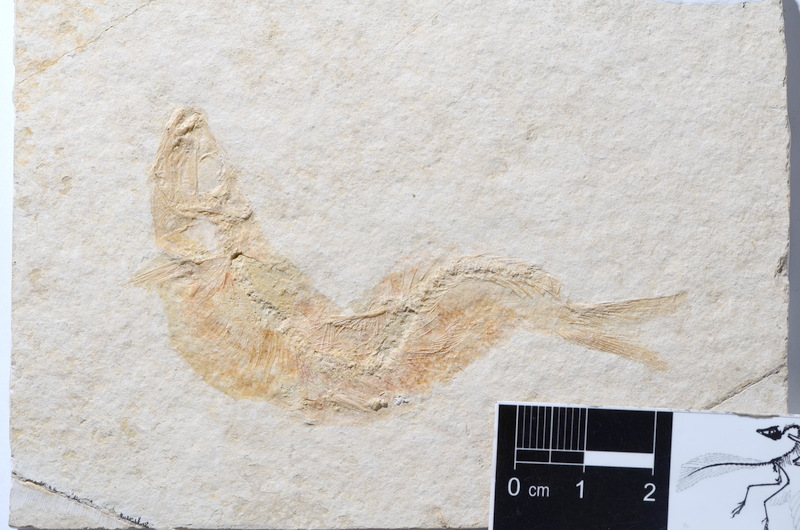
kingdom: Animalia
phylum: Chordata
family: Ascalaboidae
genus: Tharsis
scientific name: Tharsis dubius
